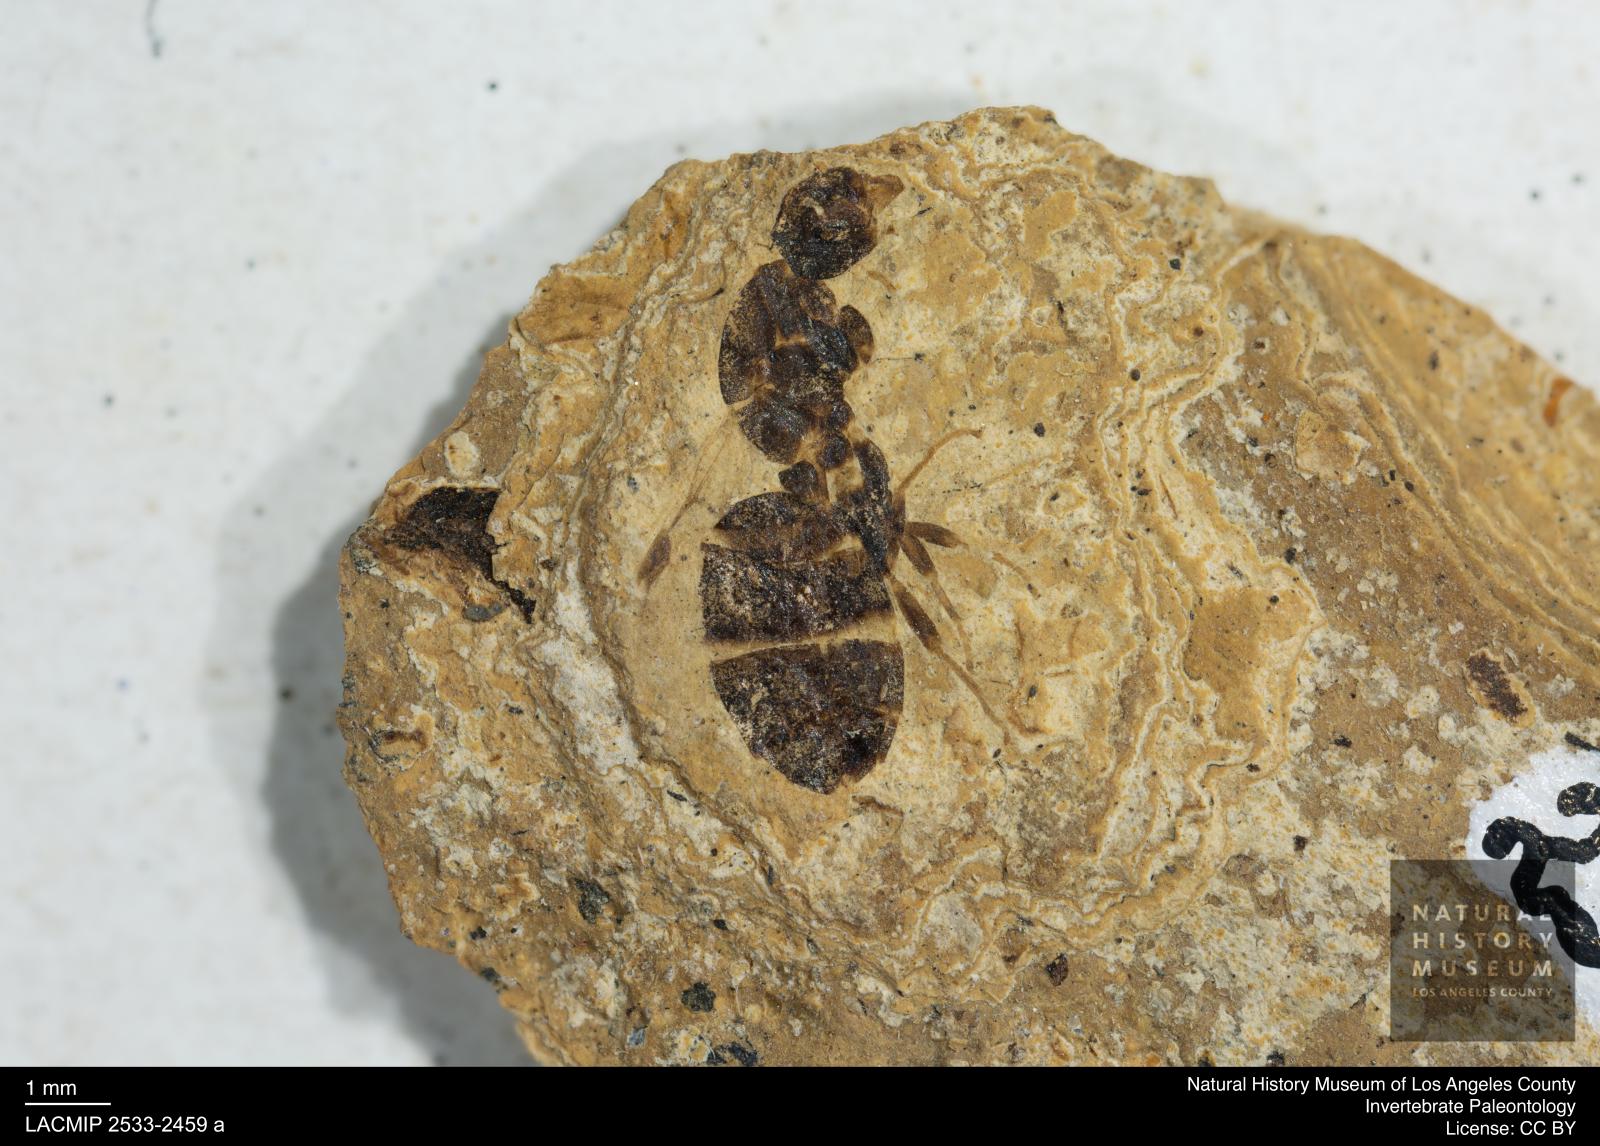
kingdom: Animalia
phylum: Arthropoda
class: Insecta
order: Hymenoptera
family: Formicidae
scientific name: Formicidae
